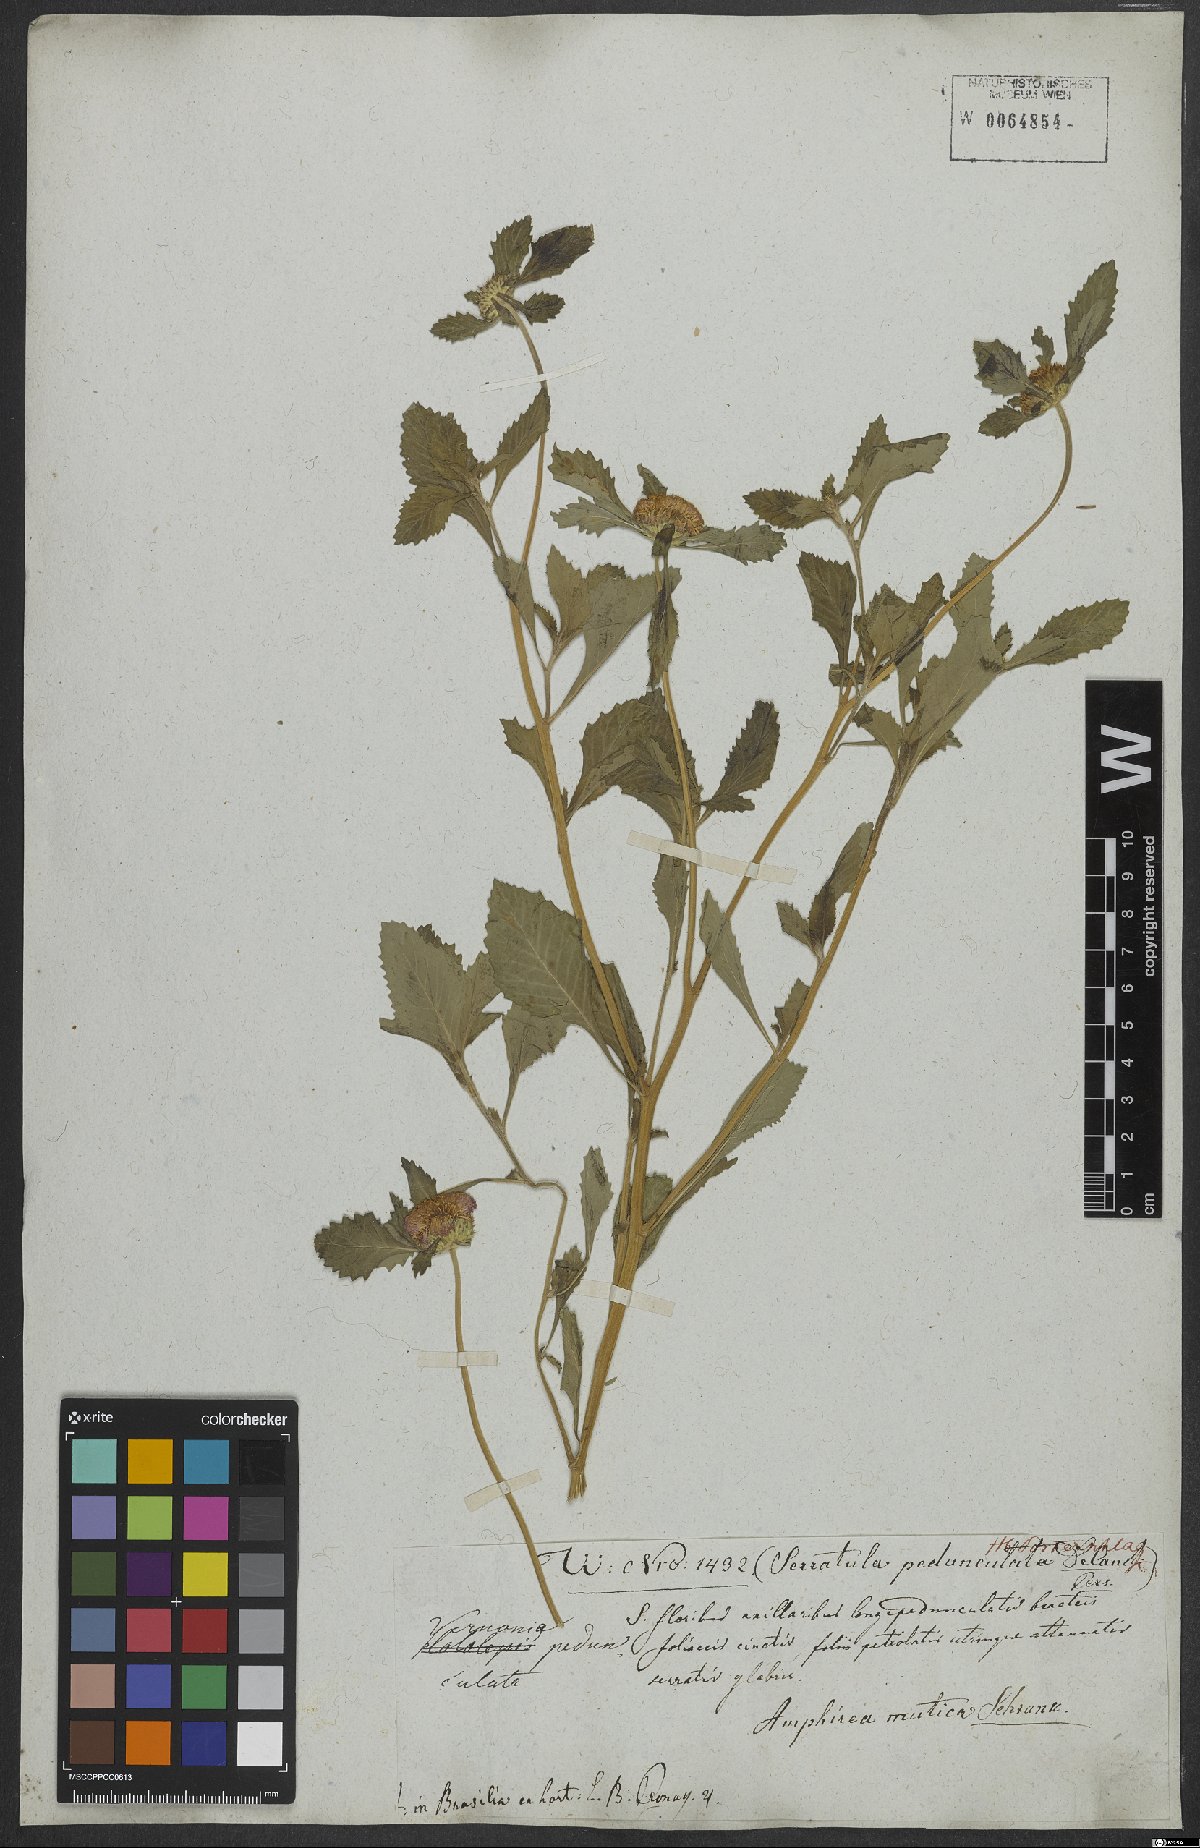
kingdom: Plantae
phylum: Tracheophyta
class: Magnoliopsida
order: Asterales
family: Asteraceae
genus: Hololepis
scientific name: Hololepis pedunculata
